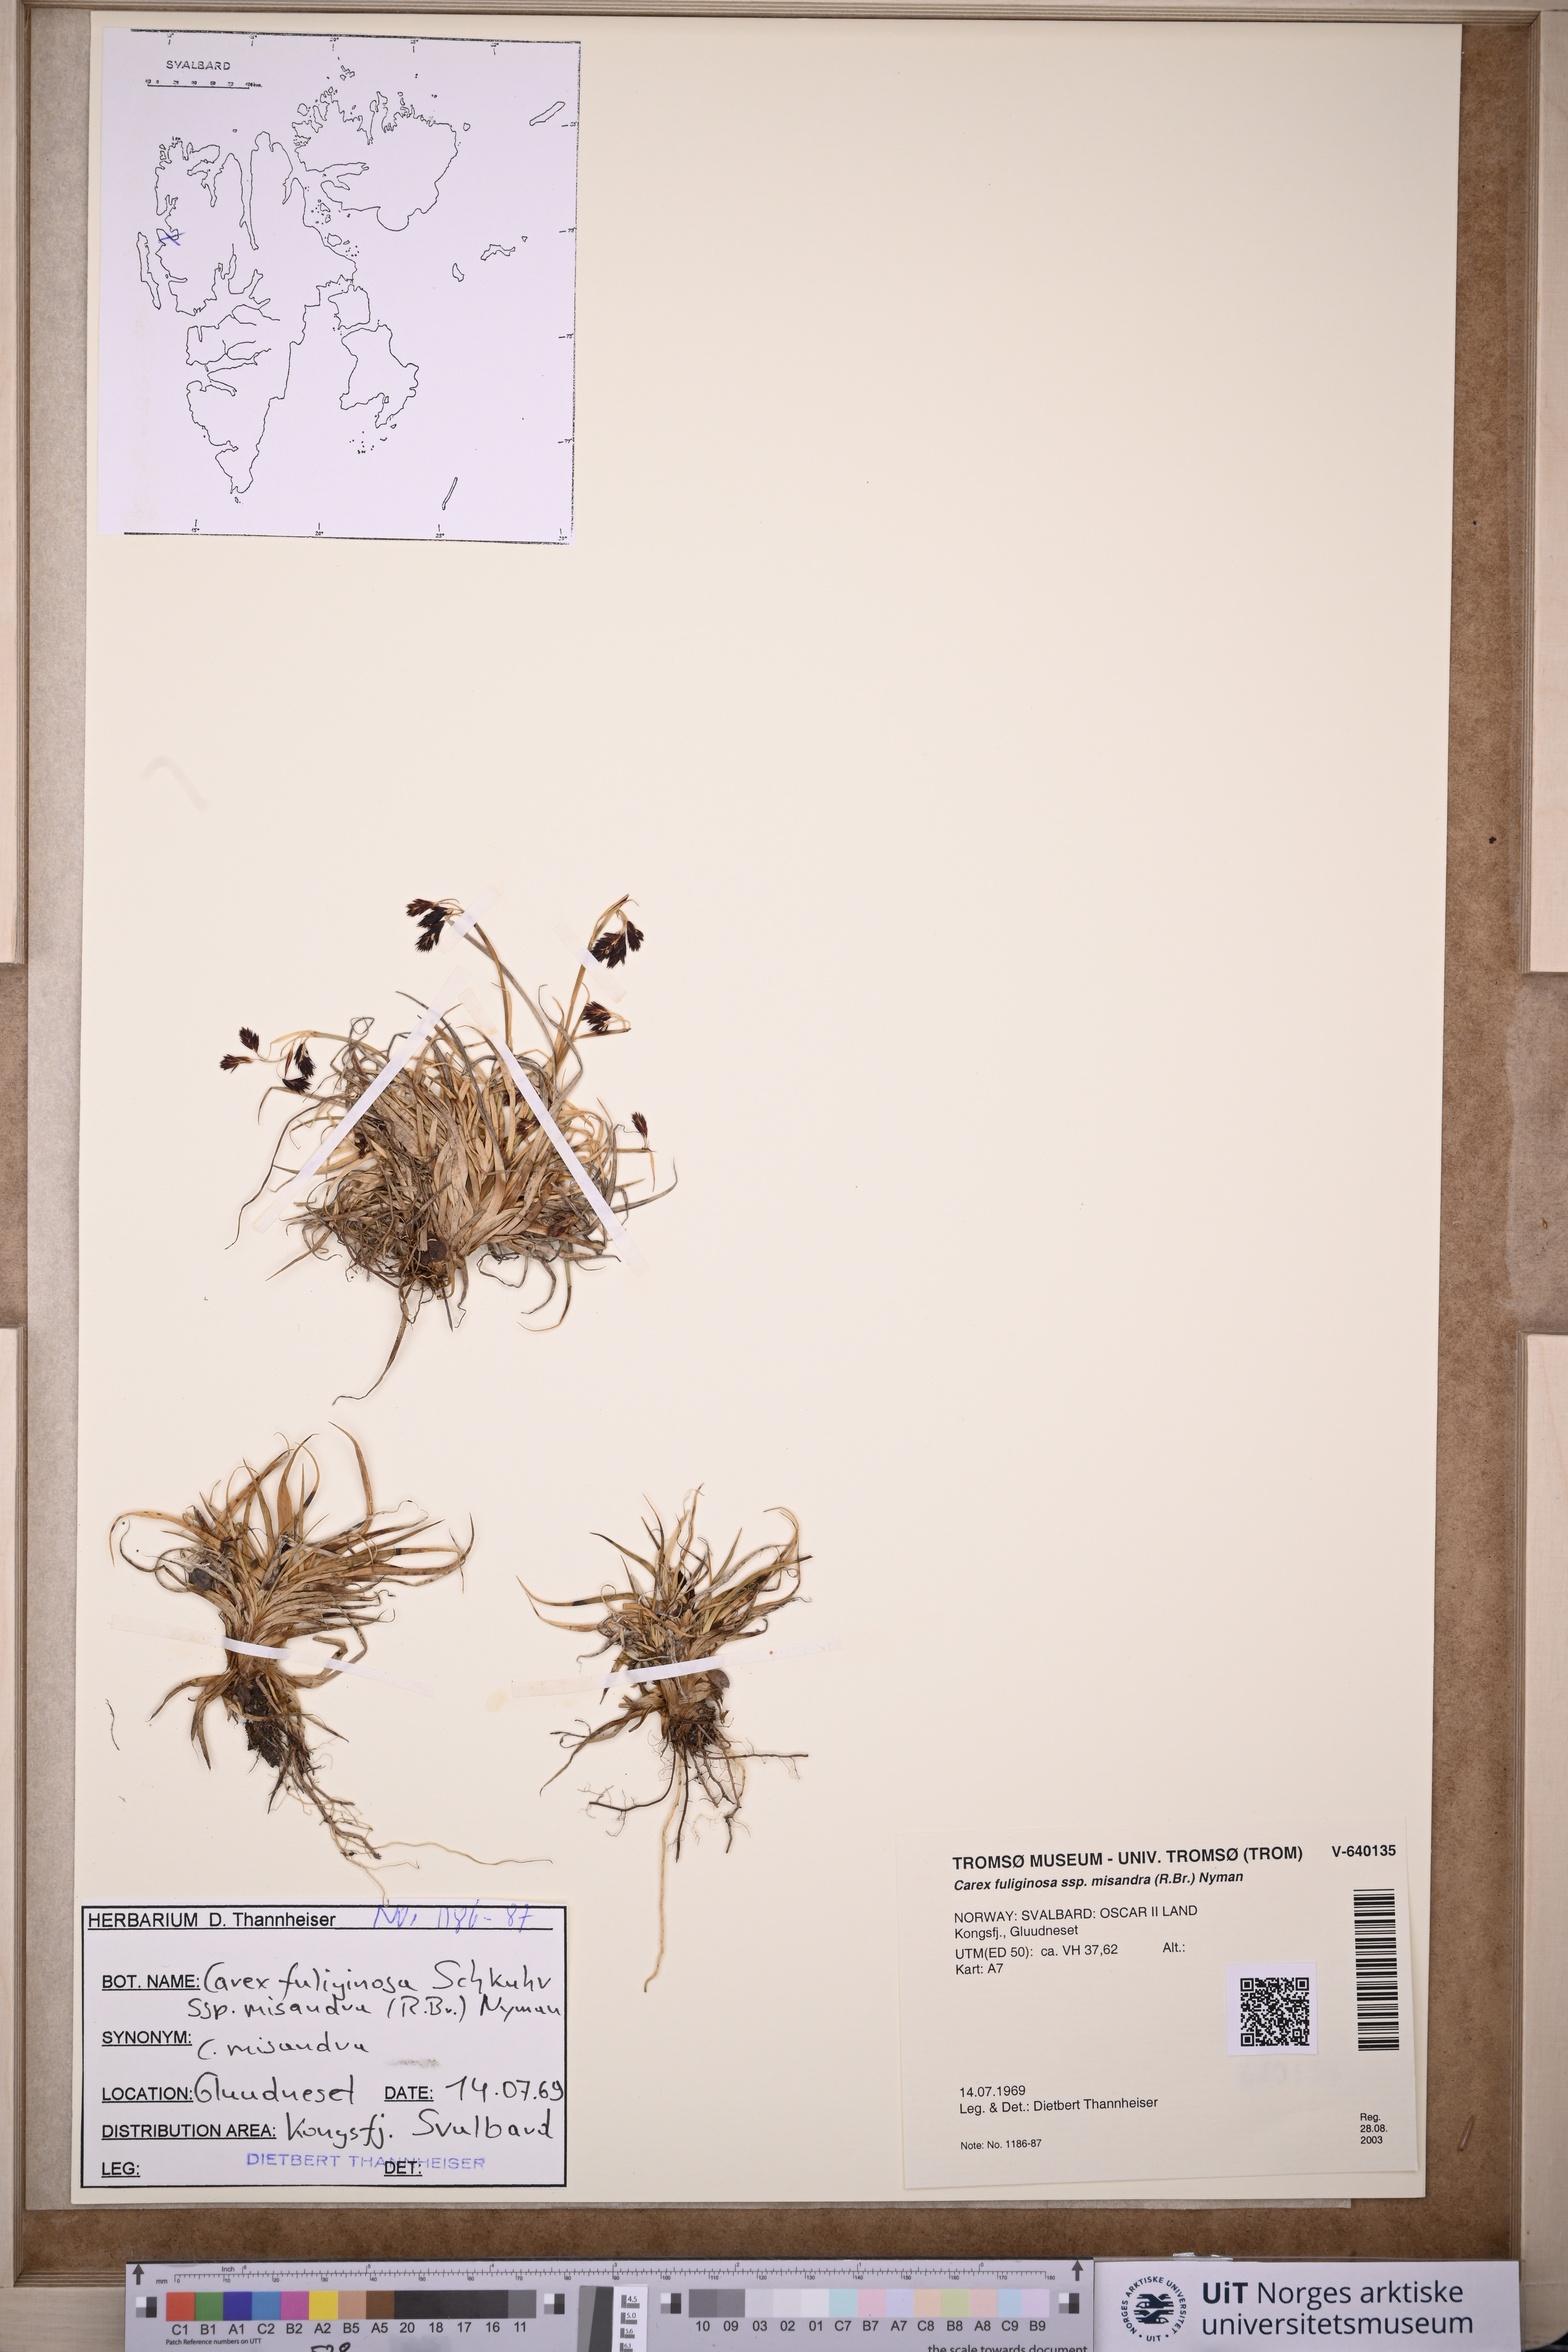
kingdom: Plantae
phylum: Tracheophyta
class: Liliopsida
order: Poales
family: Cyperaceae
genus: Carex
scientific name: Carex fuliginosa
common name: Few-flowered sedge
